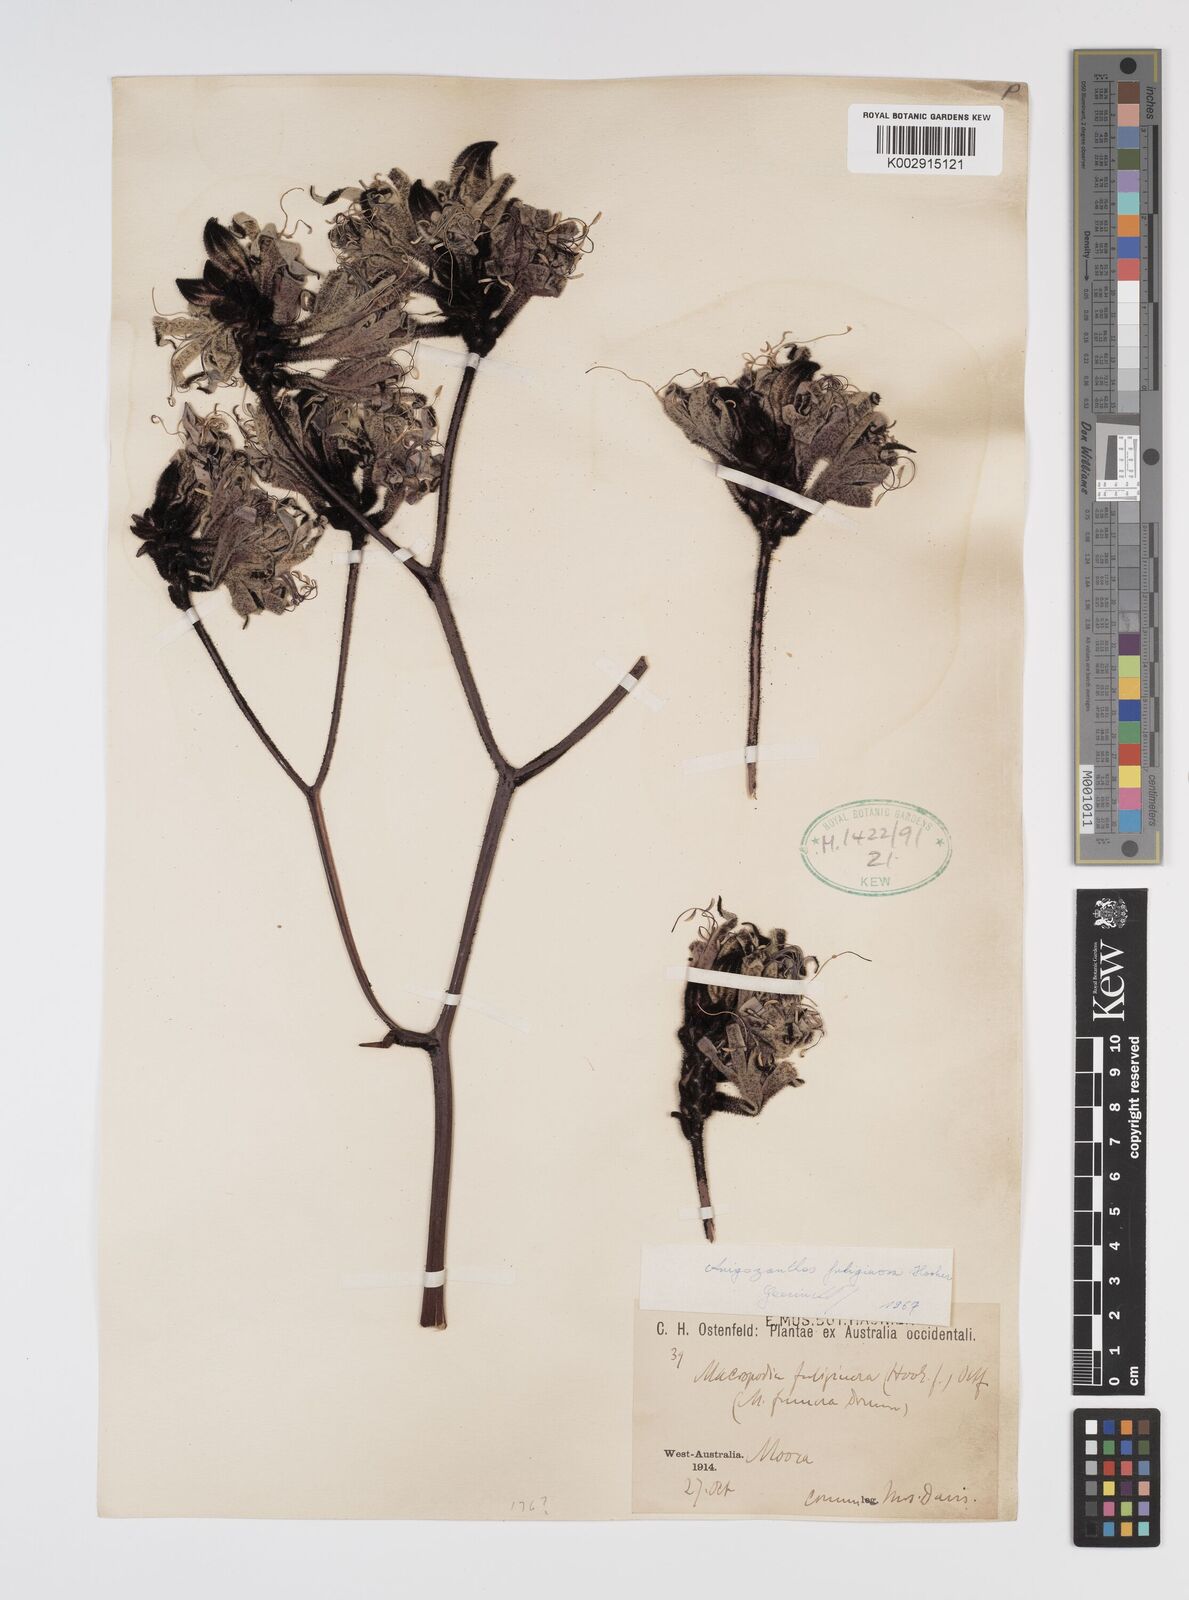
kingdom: Plantae
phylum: Tracheophyta
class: Liliopsida
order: Commelinales
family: Haemodoraceae
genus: Macropidia
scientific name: Macropidia fuliginosa
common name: Black kangaroo-paw
